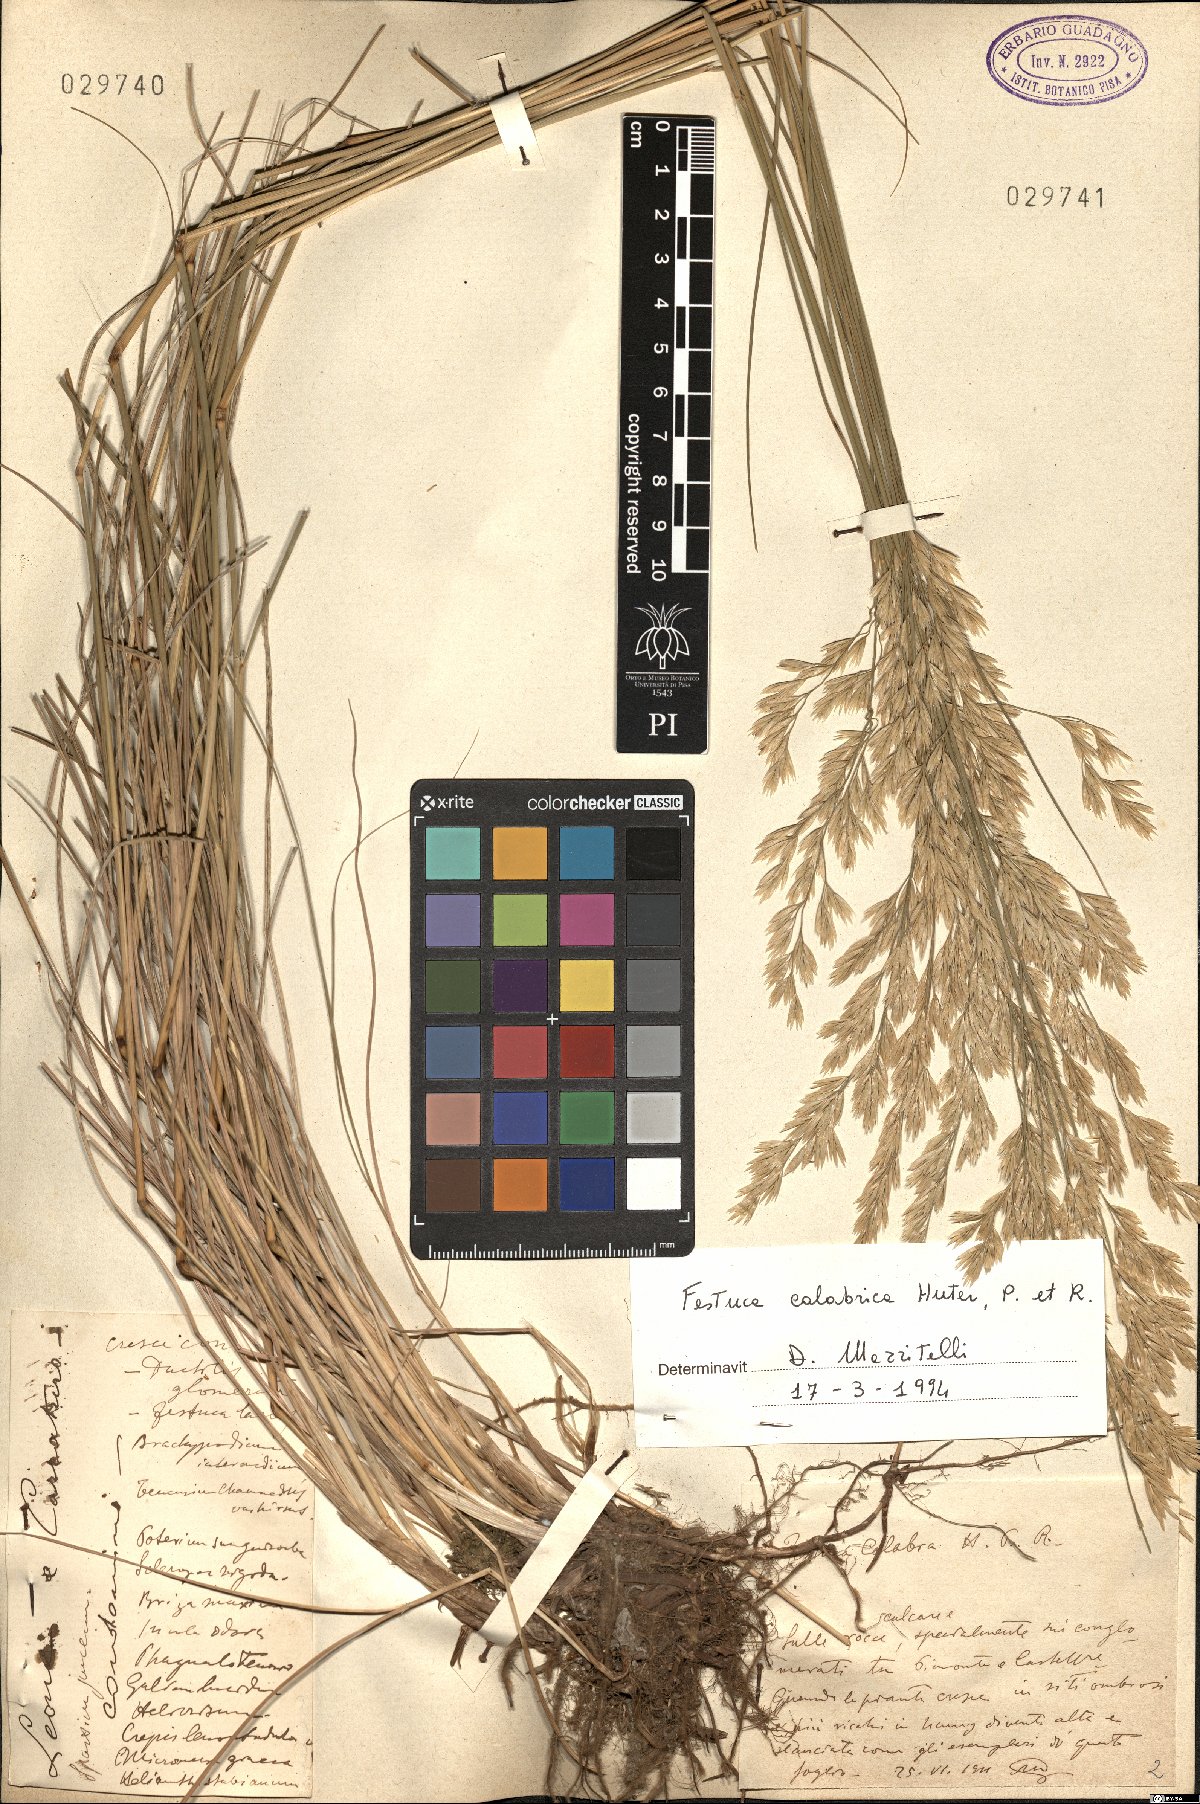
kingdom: Plantae
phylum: Tracheophyta
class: Liliopsida
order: Poales
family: Poaceae
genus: Festuca
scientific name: Festuca calabrica
